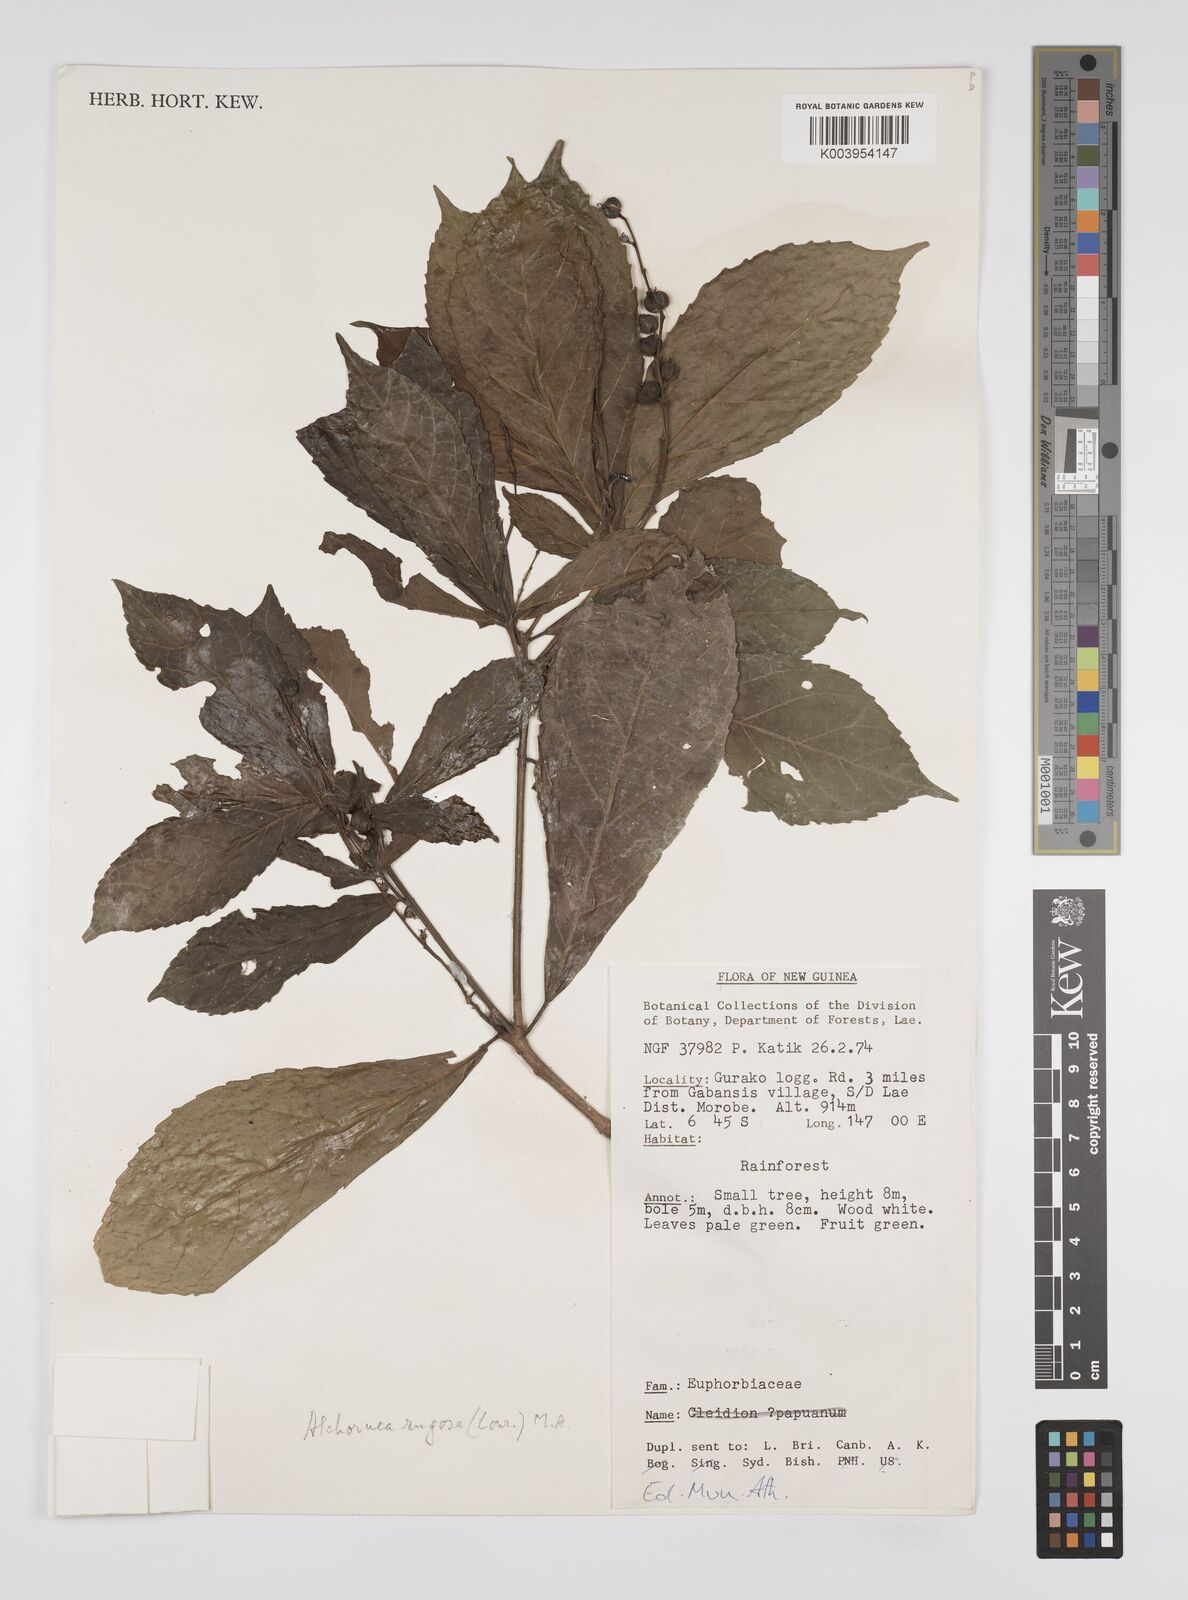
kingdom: Plantae
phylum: Tracheophyta
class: Magnoliopsida
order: Malpighiales
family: Euphorbiaceae
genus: Alchornea
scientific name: Alchornea rugosa
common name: Alchorntree
